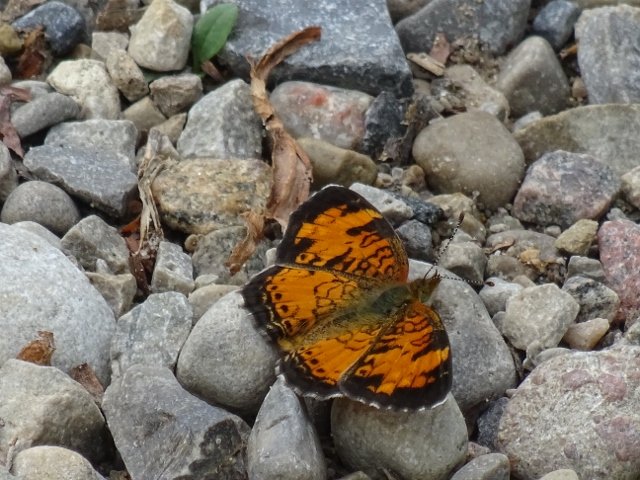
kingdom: Animalia
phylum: Arthropoda
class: Insecta
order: Lepidoptera
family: Nymphalidae
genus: Phyciodes
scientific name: Phyciodes tharos
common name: Pearl Crescent
